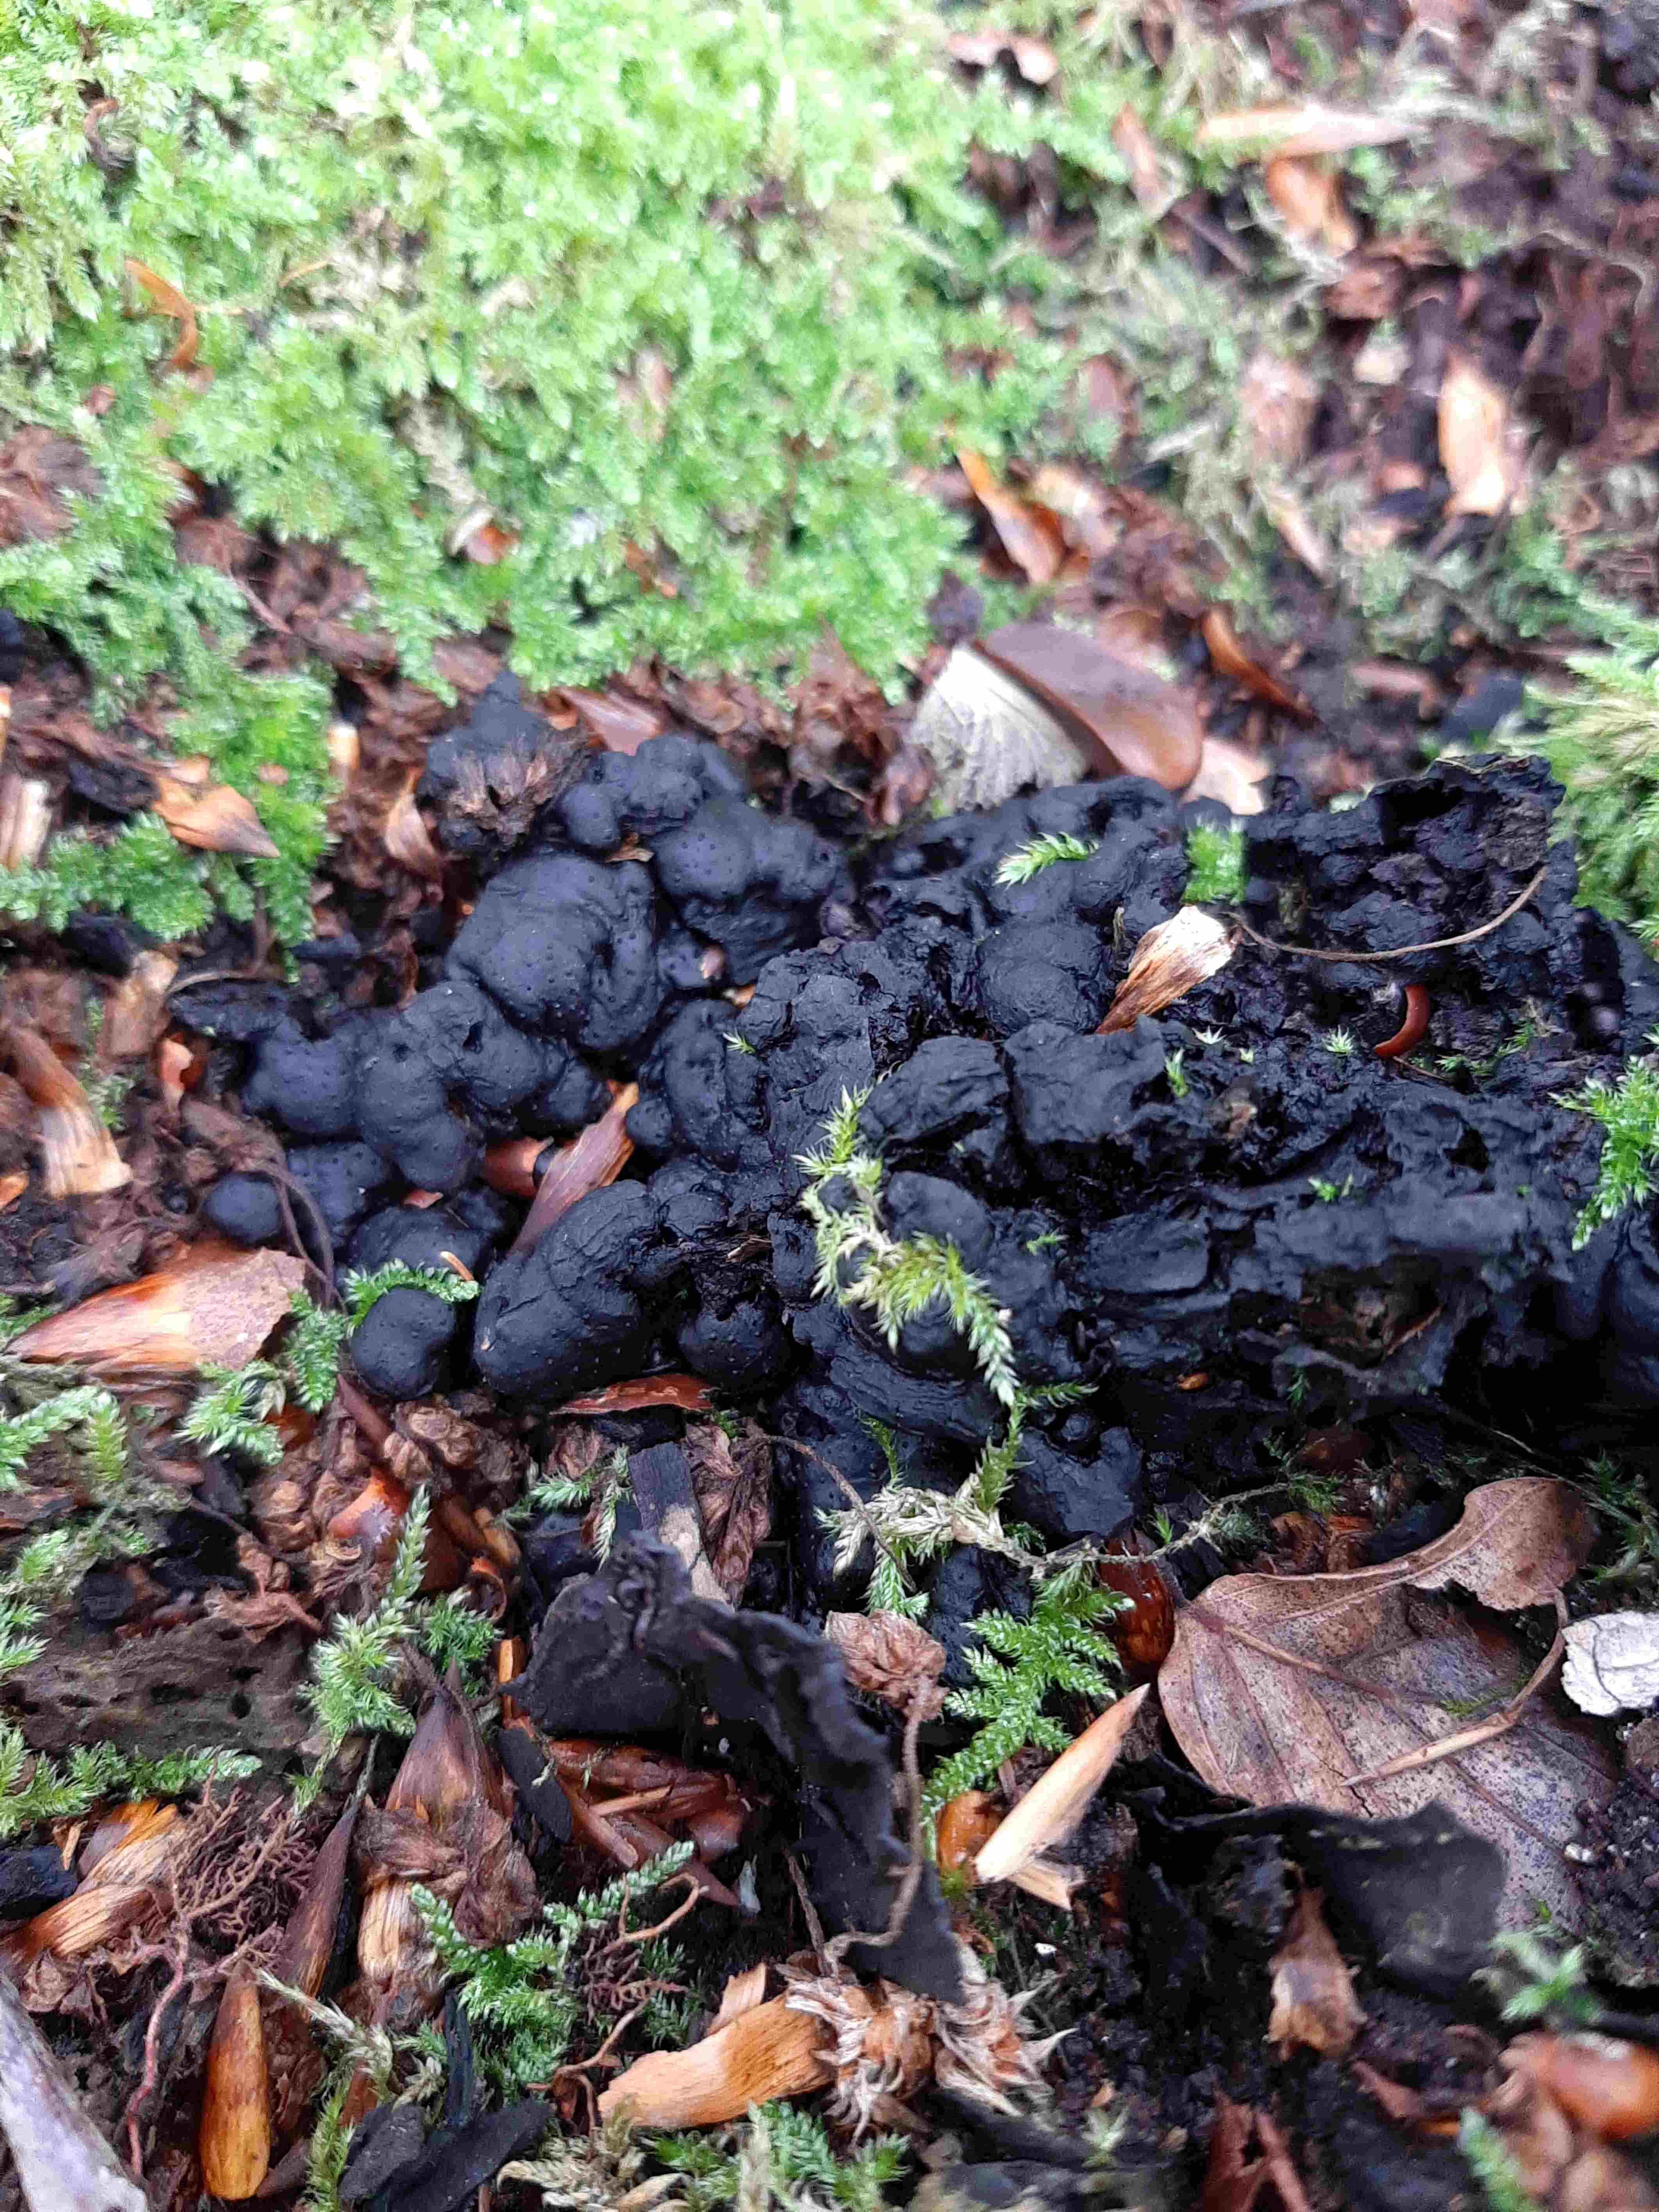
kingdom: Fungi
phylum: Ascomycota
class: Sordariomycetes
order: Xylariales
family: Xylariaceae
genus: Kretzschmaria
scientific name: Kretzschmaria deusta
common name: stor kulsvamp
